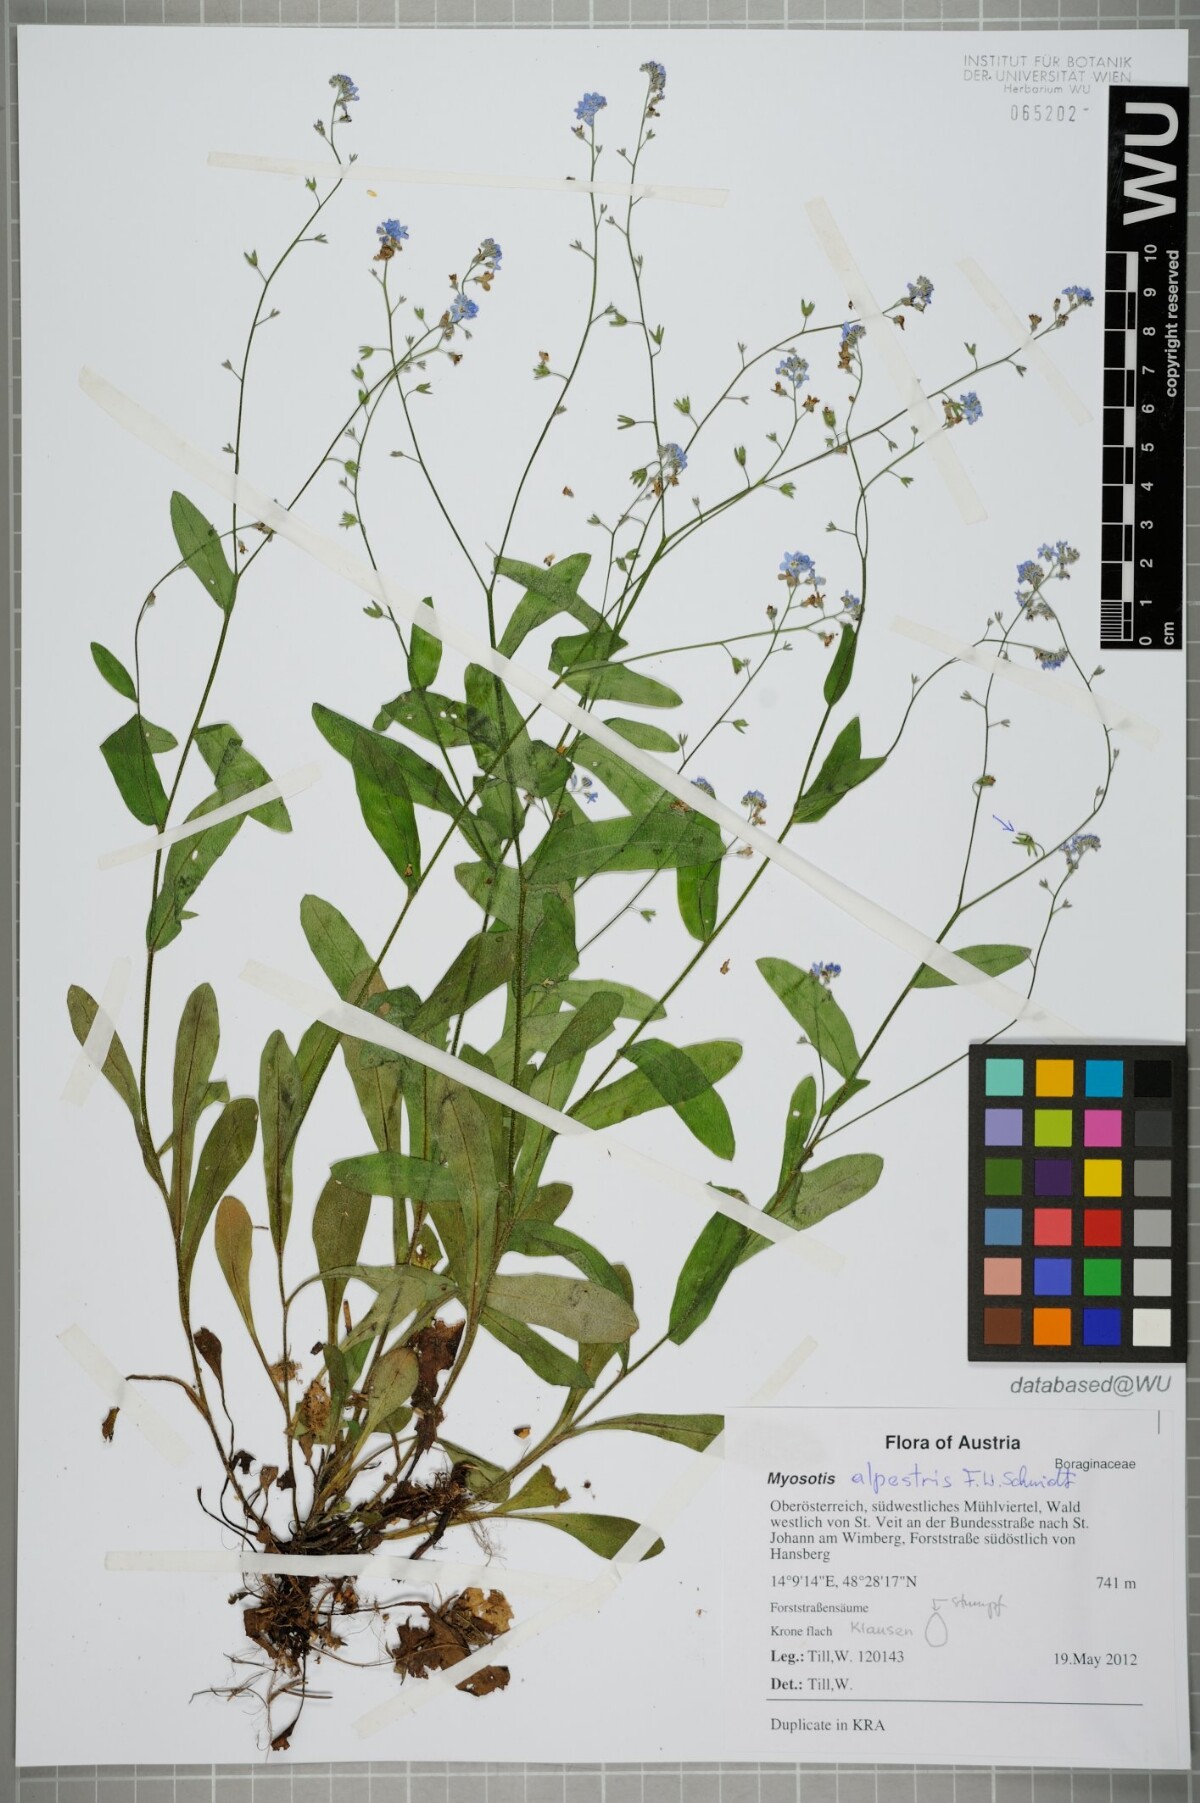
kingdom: Plantae
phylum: Tracheophyta
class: Magnoliopsida
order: Boraginales
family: Boraginaceae
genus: Myosotis
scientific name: Myosotis sylvatica
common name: Wood forget-me-not
